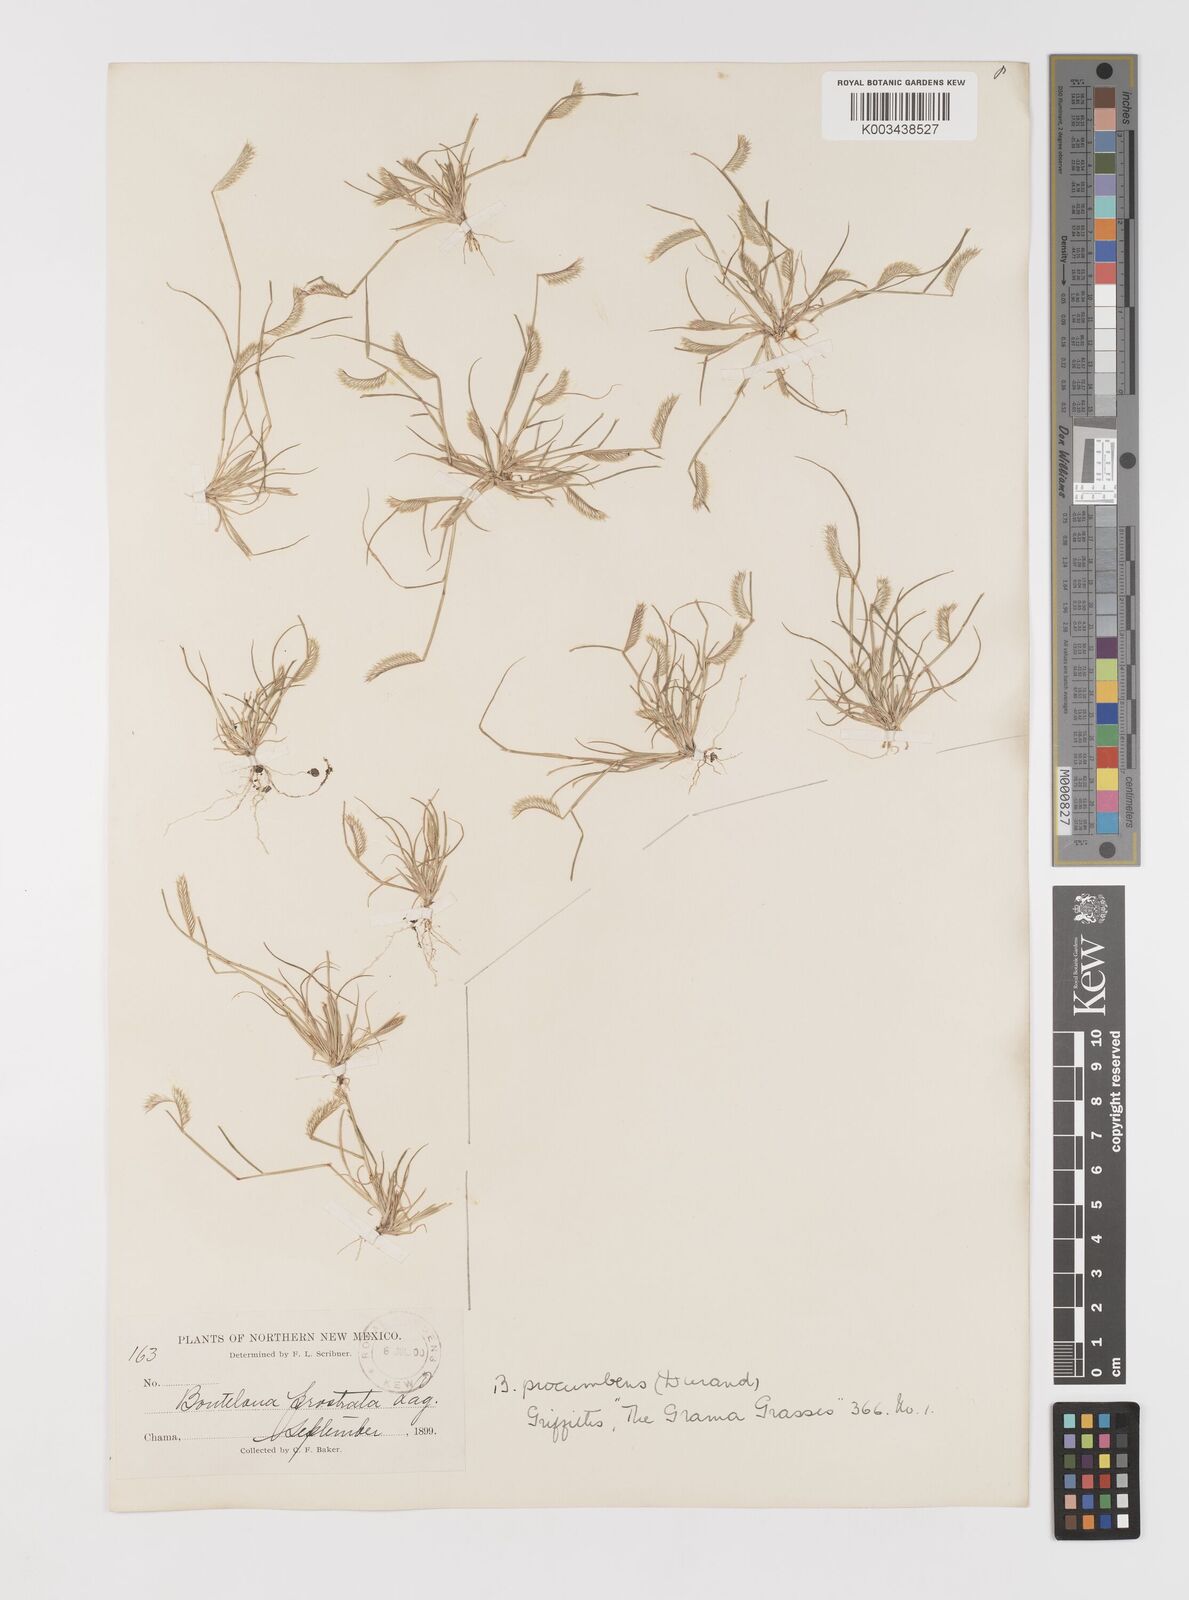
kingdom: Plantae
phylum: Tracheophyta
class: Liliopsida
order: Poales
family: Poaceae
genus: Bouteloua
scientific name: Bouteloua simplex
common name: Mat grama
